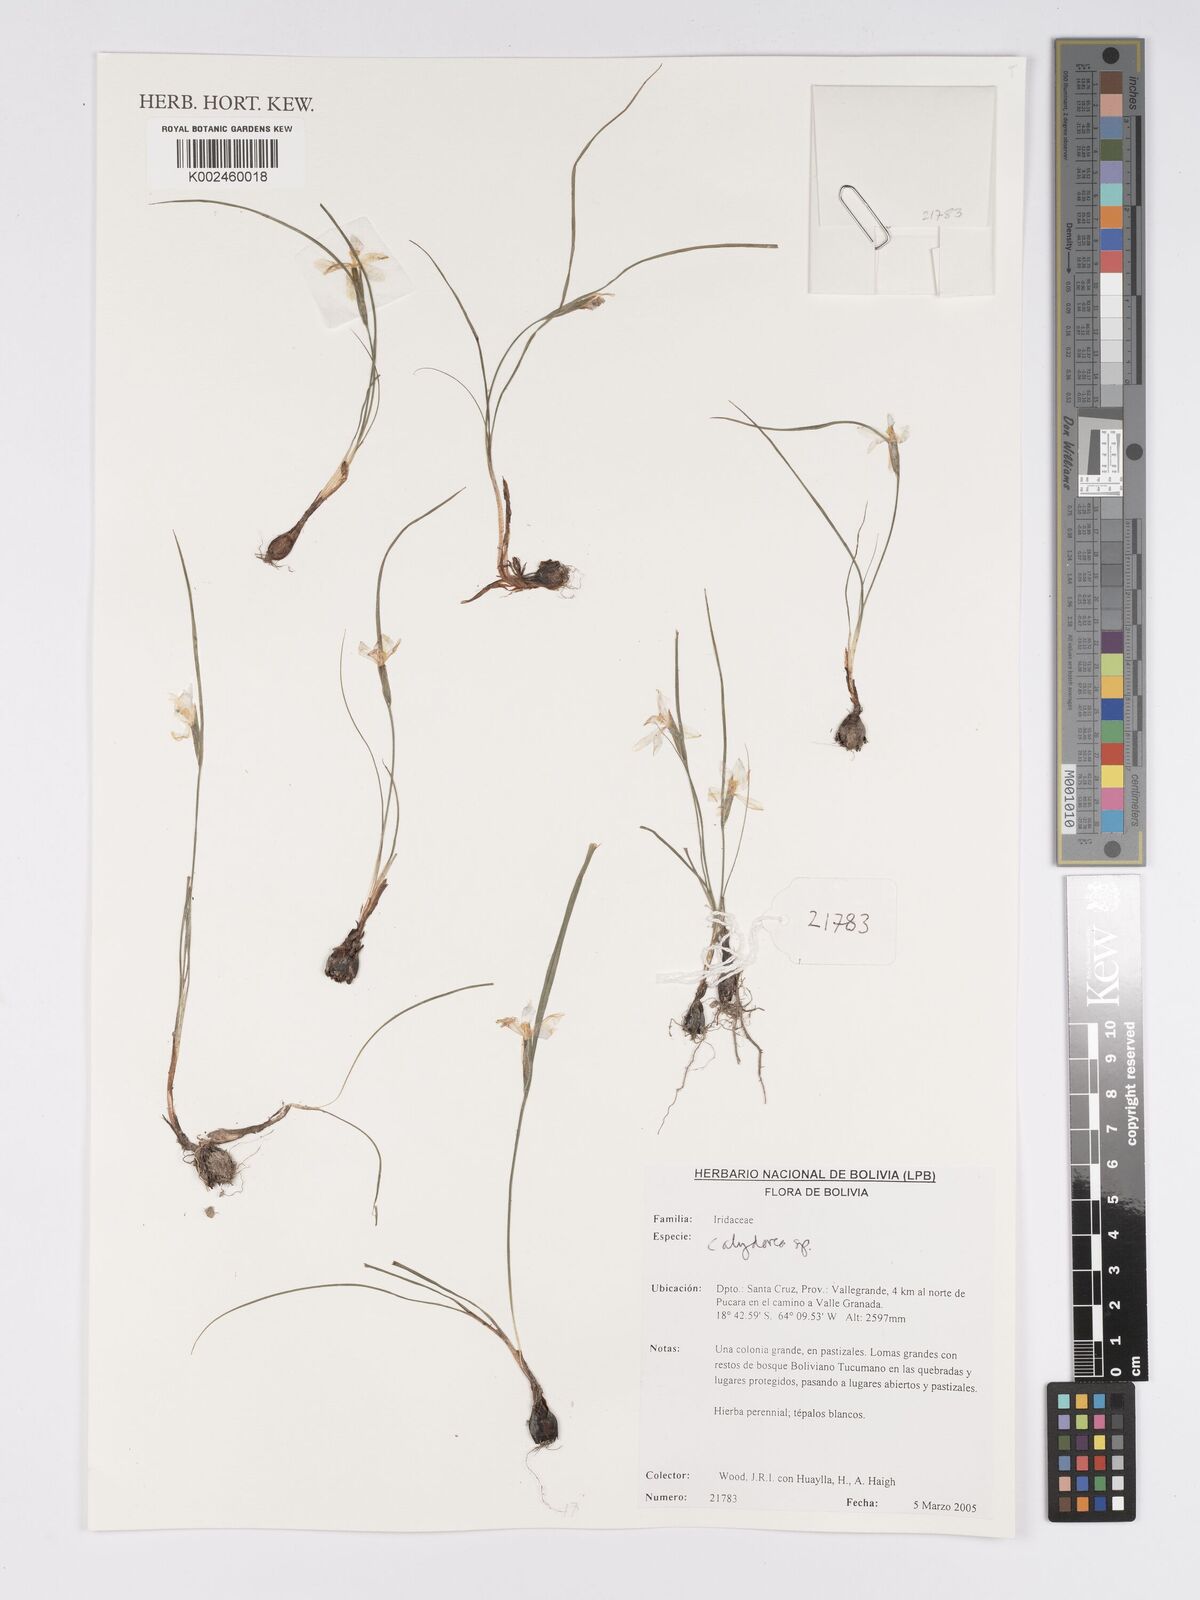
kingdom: Plantae
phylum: Tracheophyta
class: Liliopsida
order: Asparagales
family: Iridaceae
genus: Calydorea
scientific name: Calydorea
